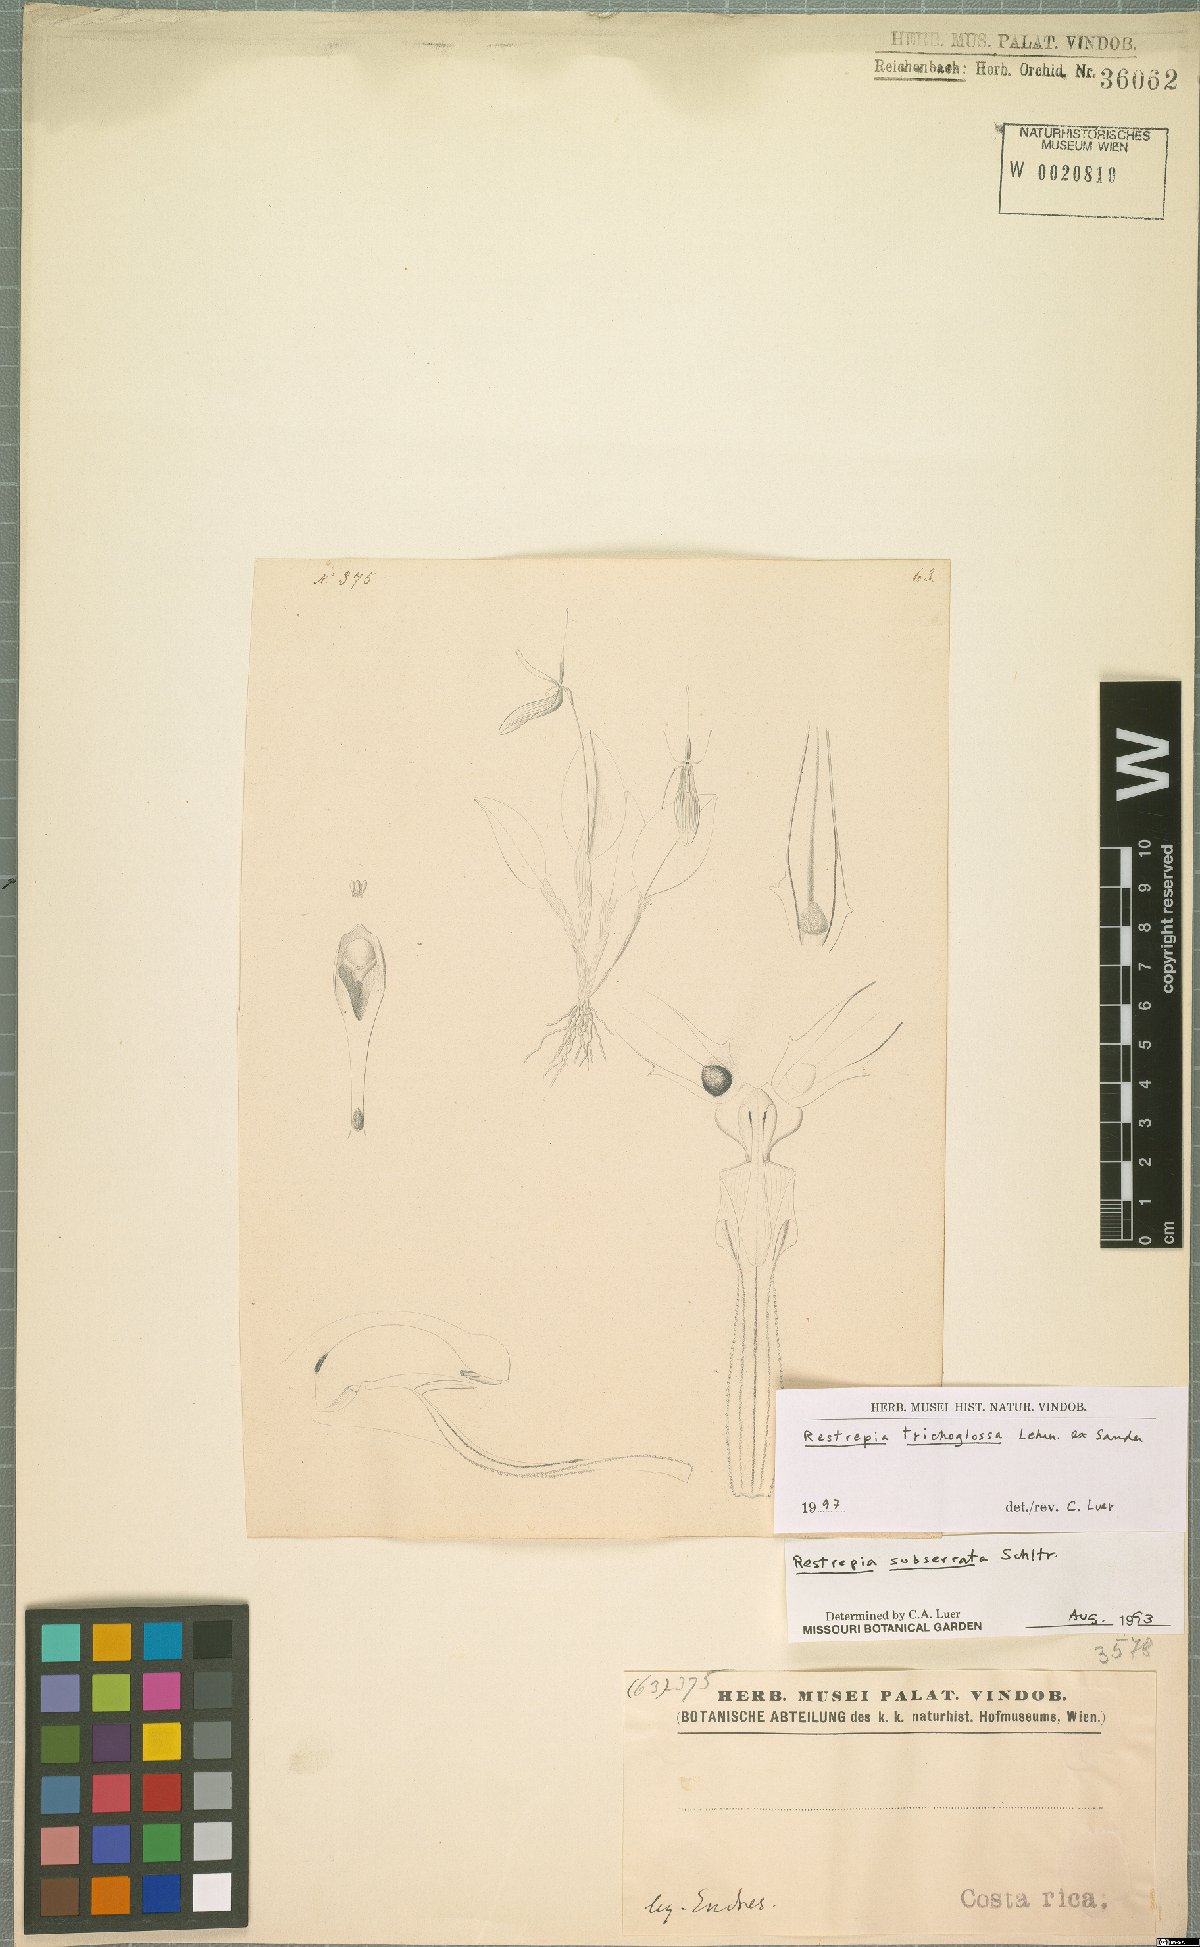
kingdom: Plantae
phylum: Tracheophyta
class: Liliopsida
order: Asparagales
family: Orchidaceae
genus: Restrepia
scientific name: Restrepia trichoglossa
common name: Hairy tongued restrepia
